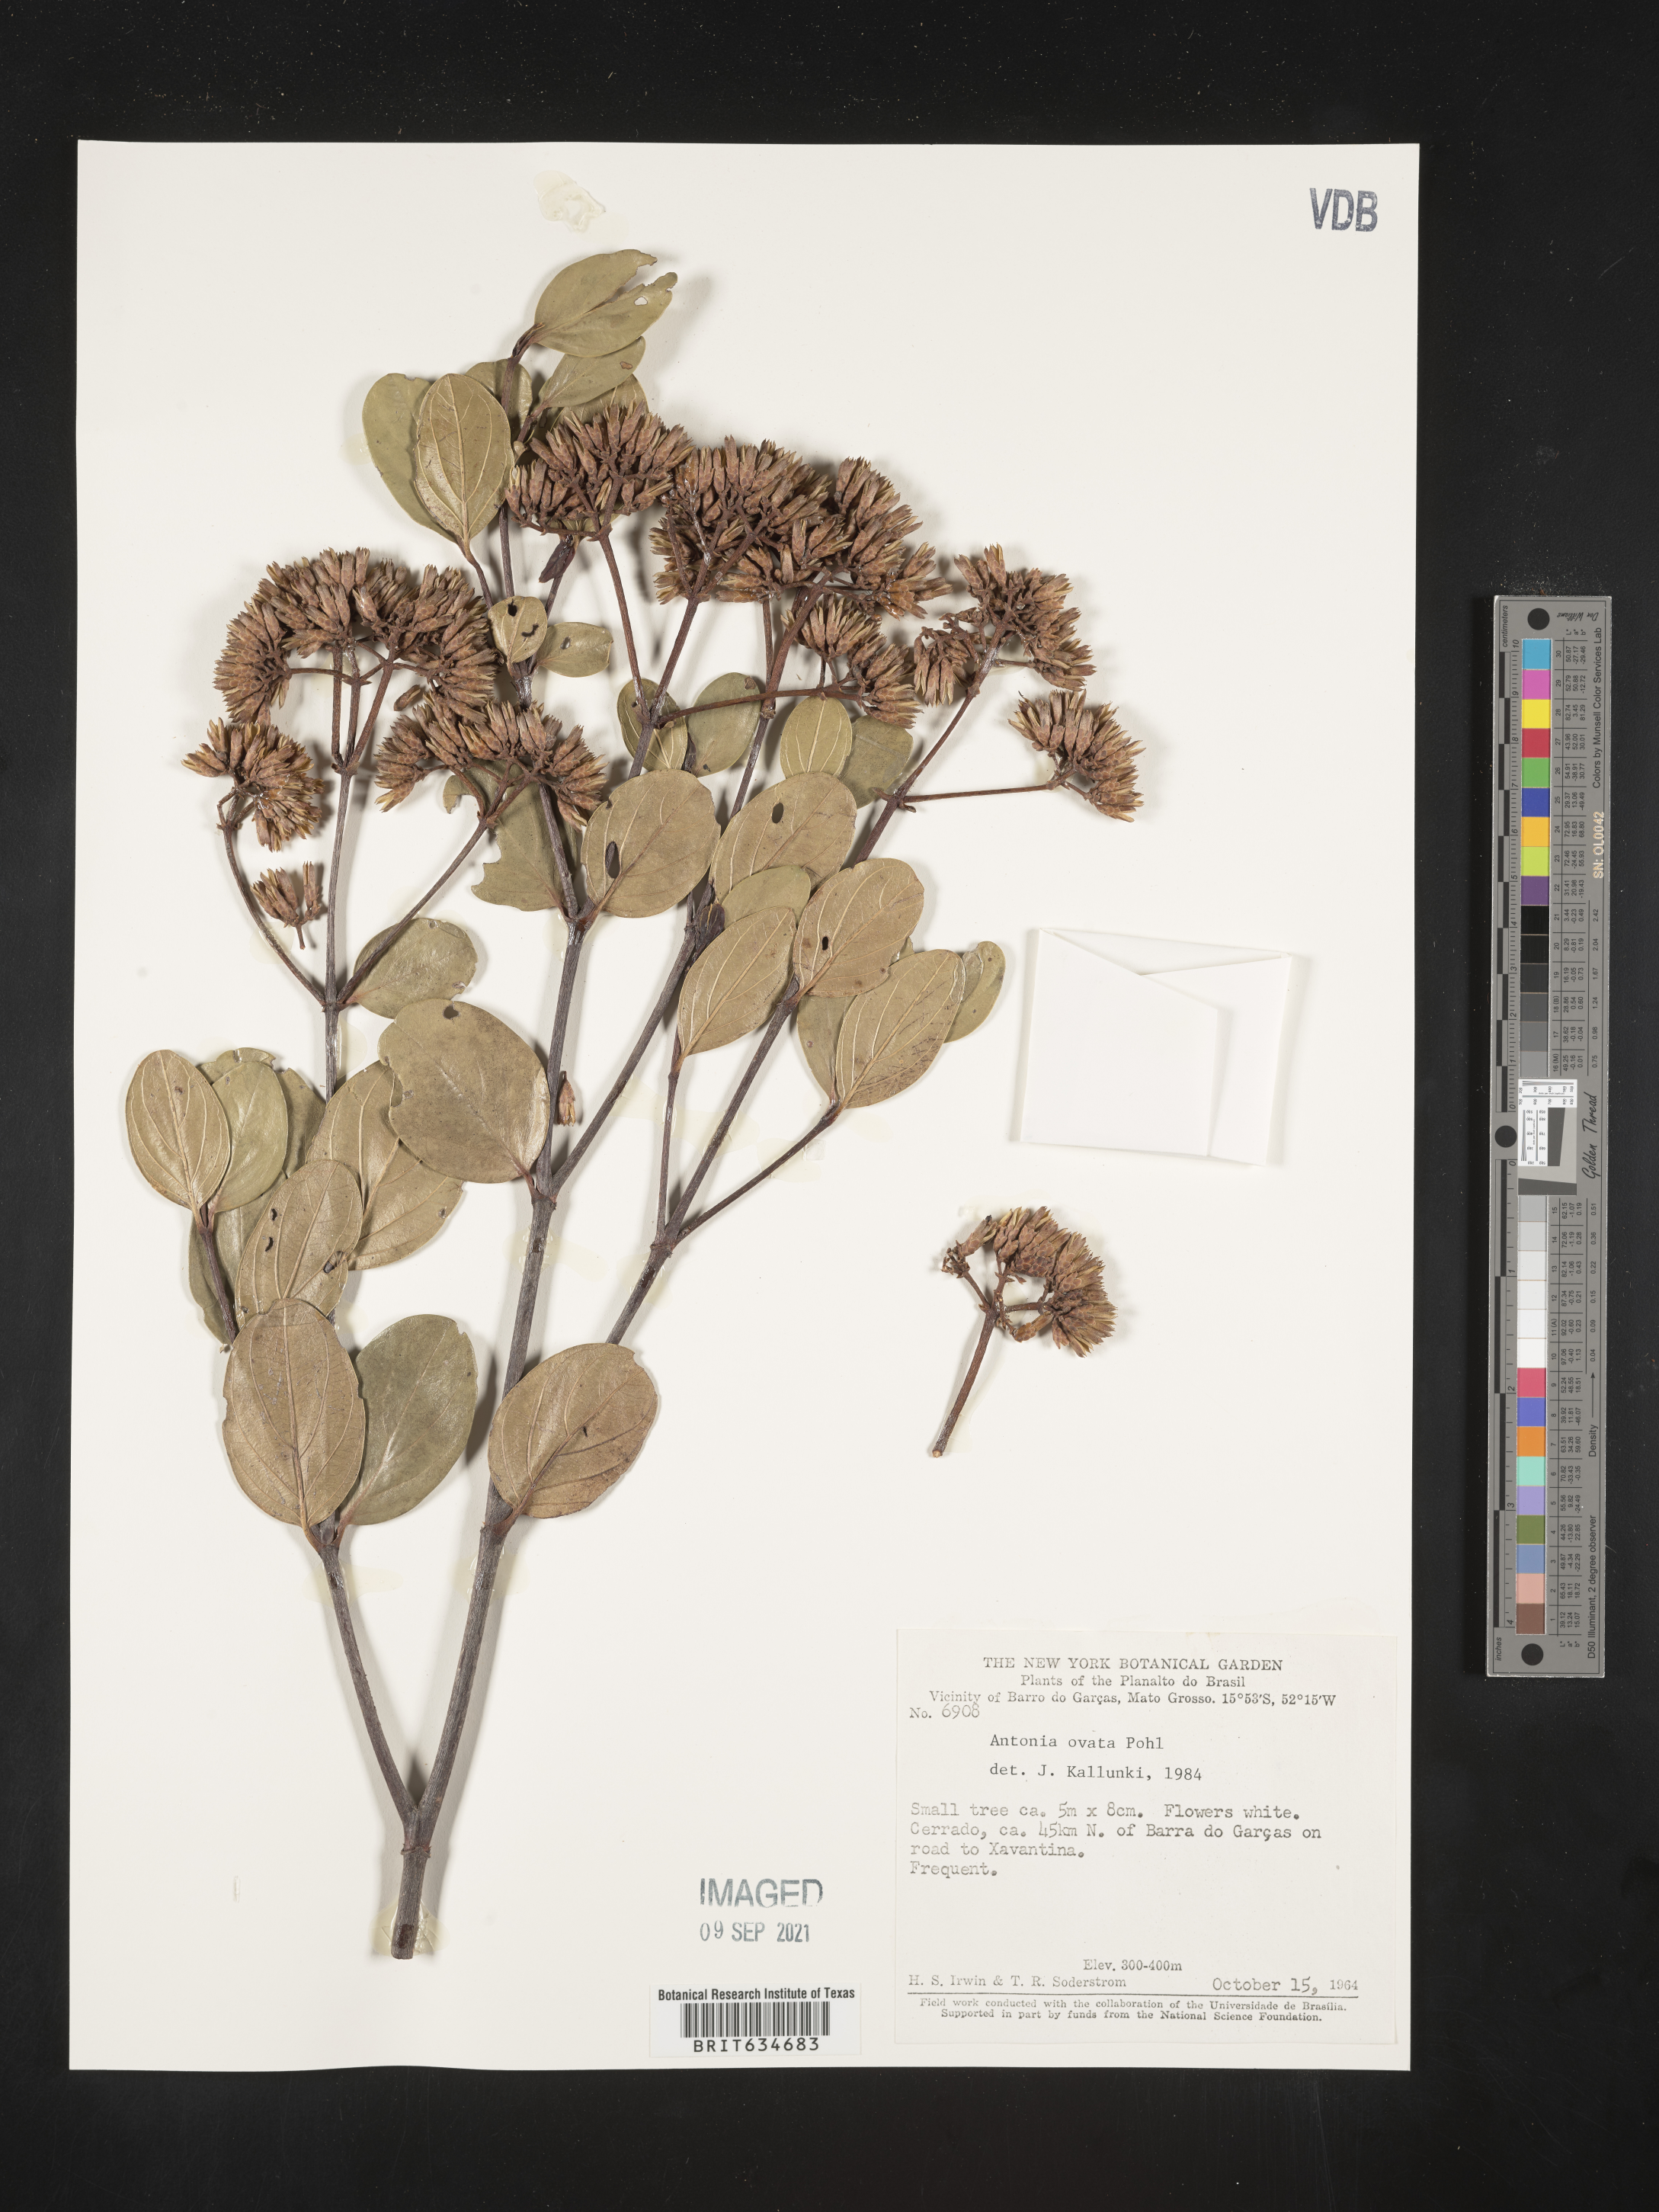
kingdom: Plantae
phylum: Tracheophyta
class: Magnoliopsida
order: Gentianales
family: Loganiaceae
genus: Antonia
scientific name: Antonia
